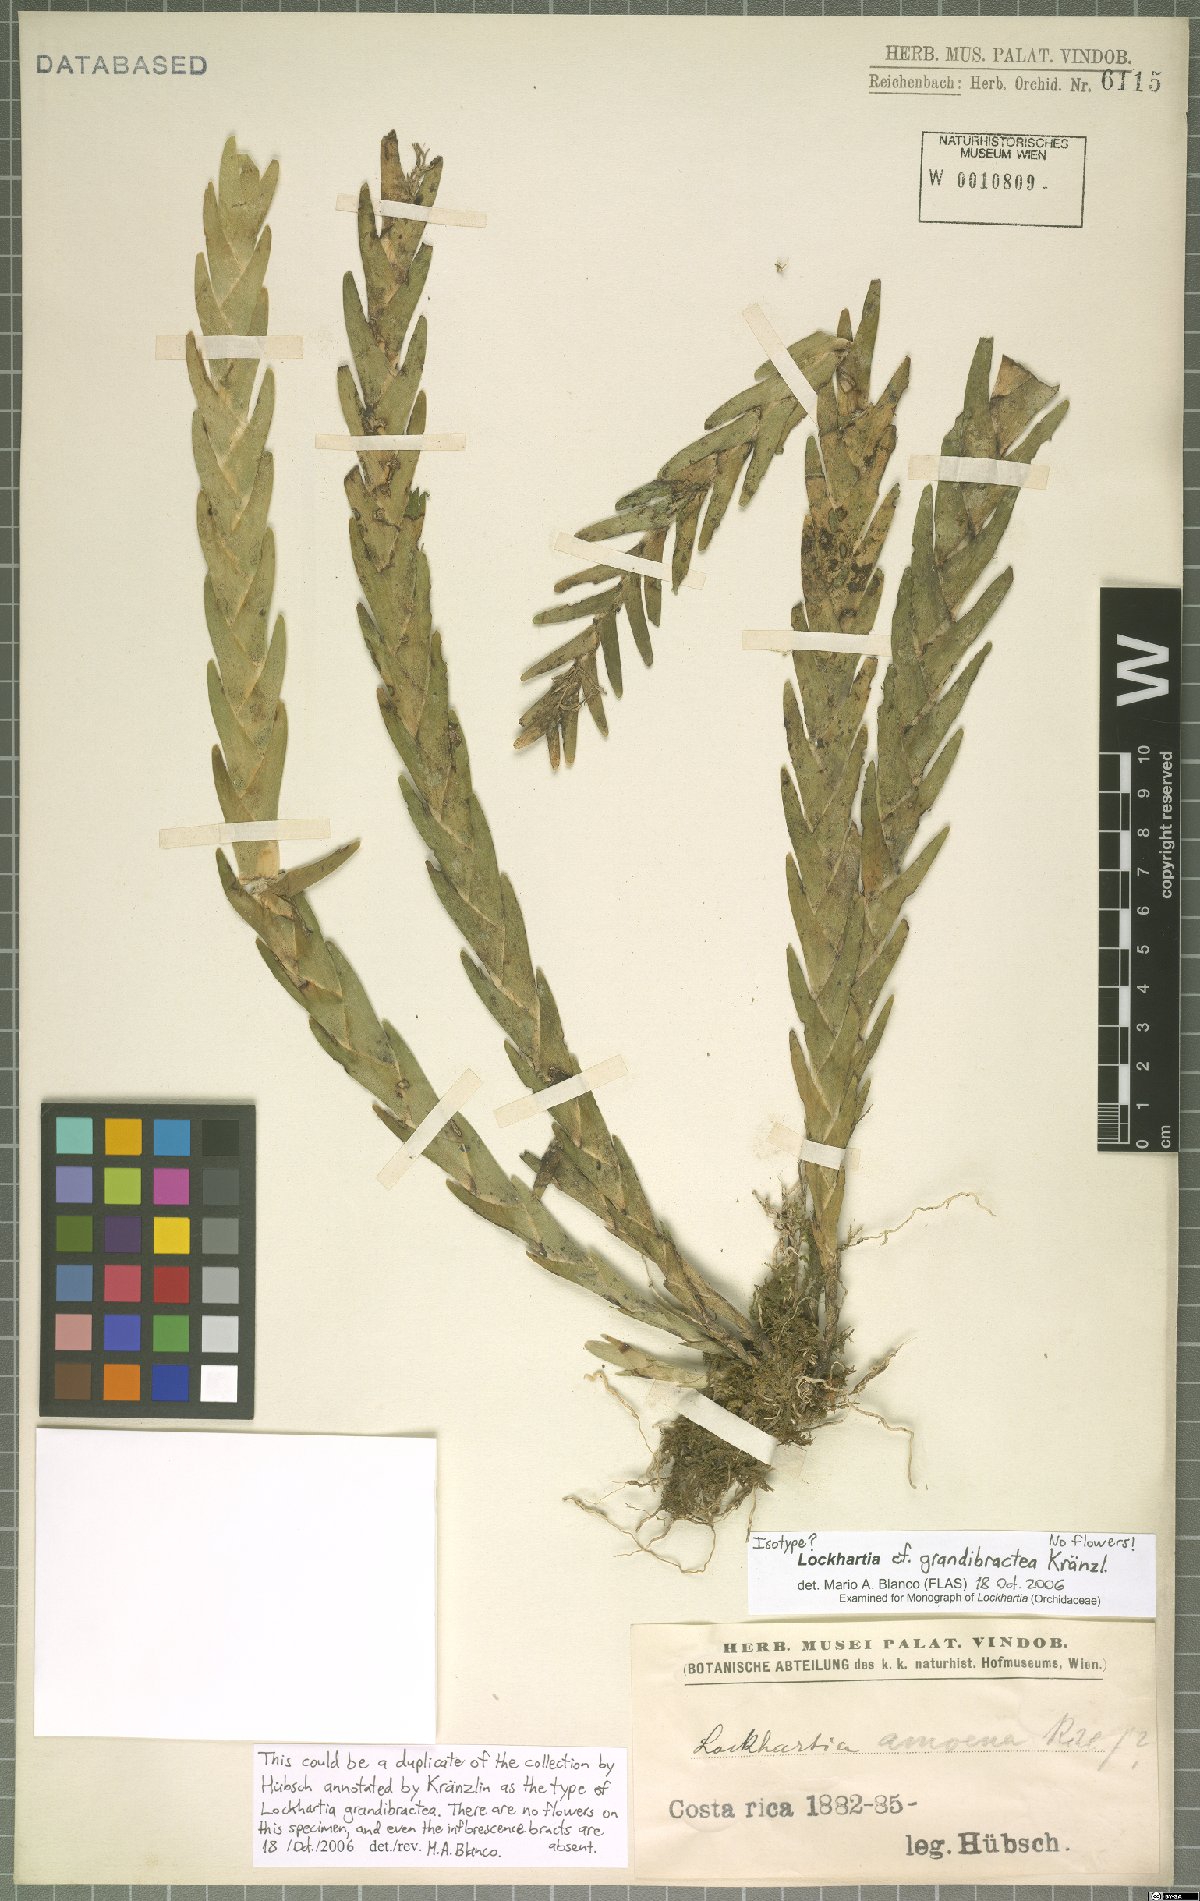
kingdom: Plantae
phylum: Tracheophyta
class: Liliopsida
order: Asparagales
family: Orchidaceae
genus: Lockhartia
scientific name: Lockhartia amoena
